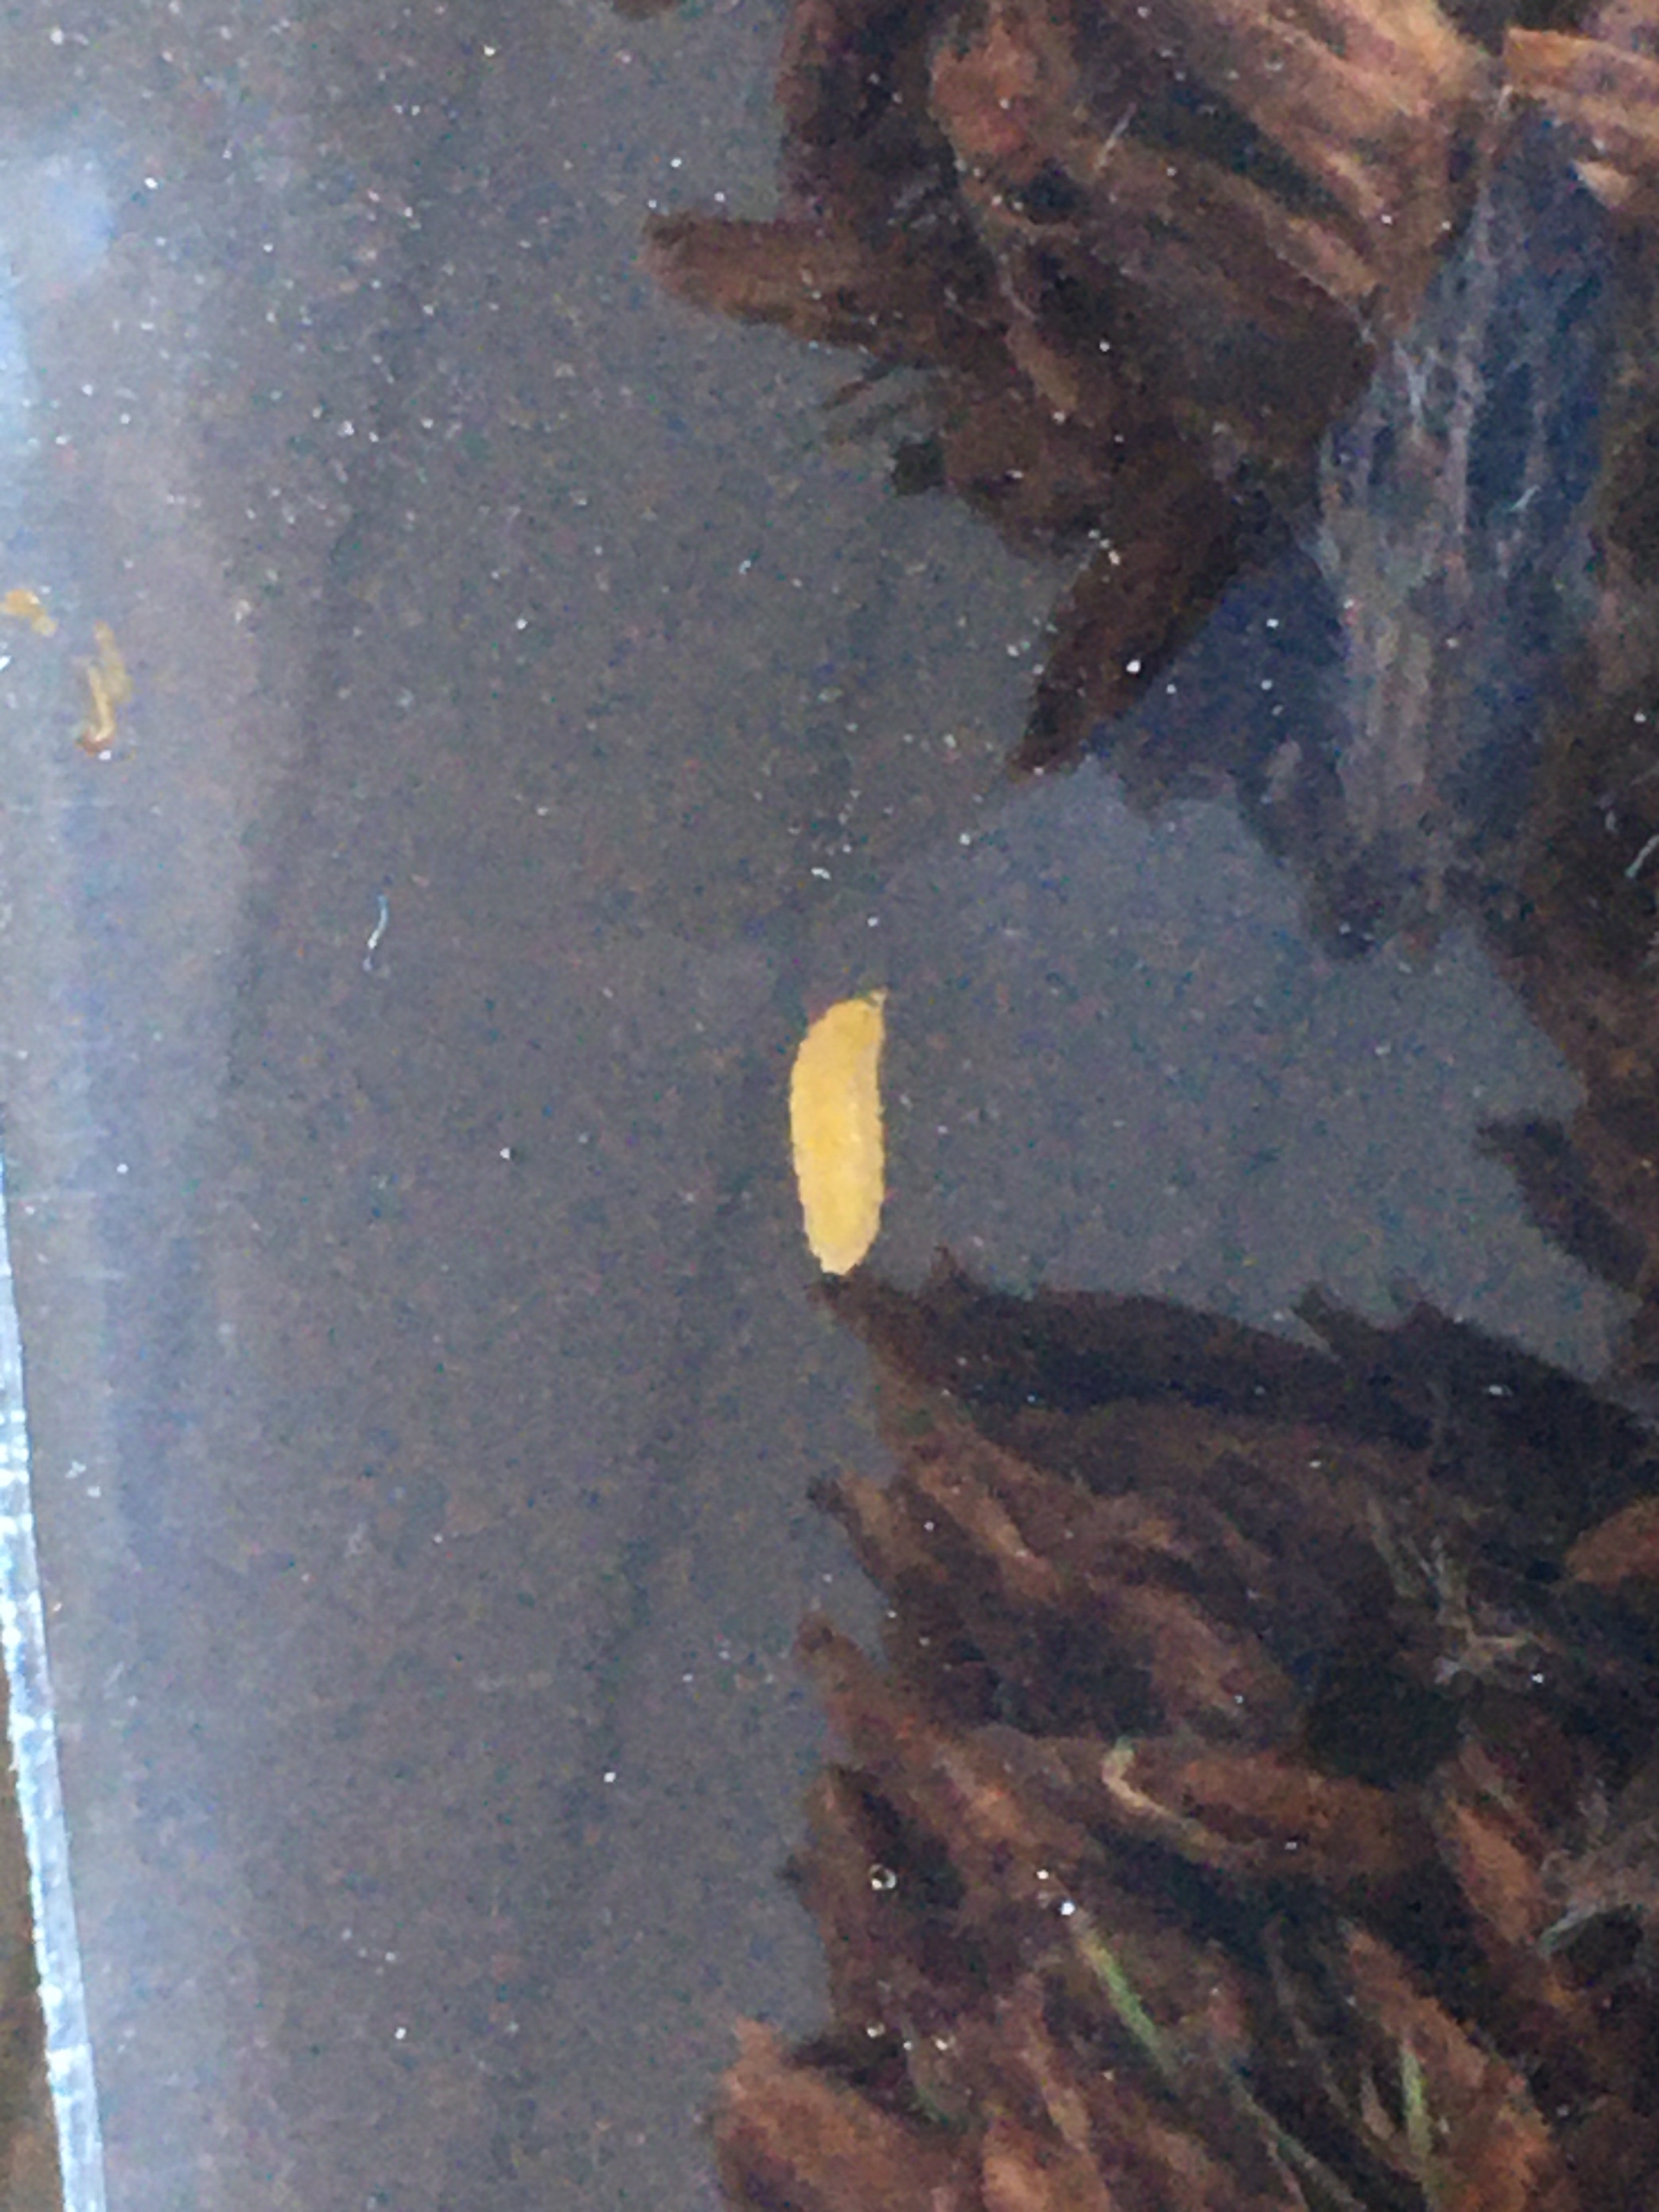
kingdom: Animalia
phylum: Arthropoda
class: Insecta
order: Diptera
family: Cecidomyiidae
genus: Dasineura
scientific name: Dasineura leguminicola
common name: Kløverblomstgalmyg
